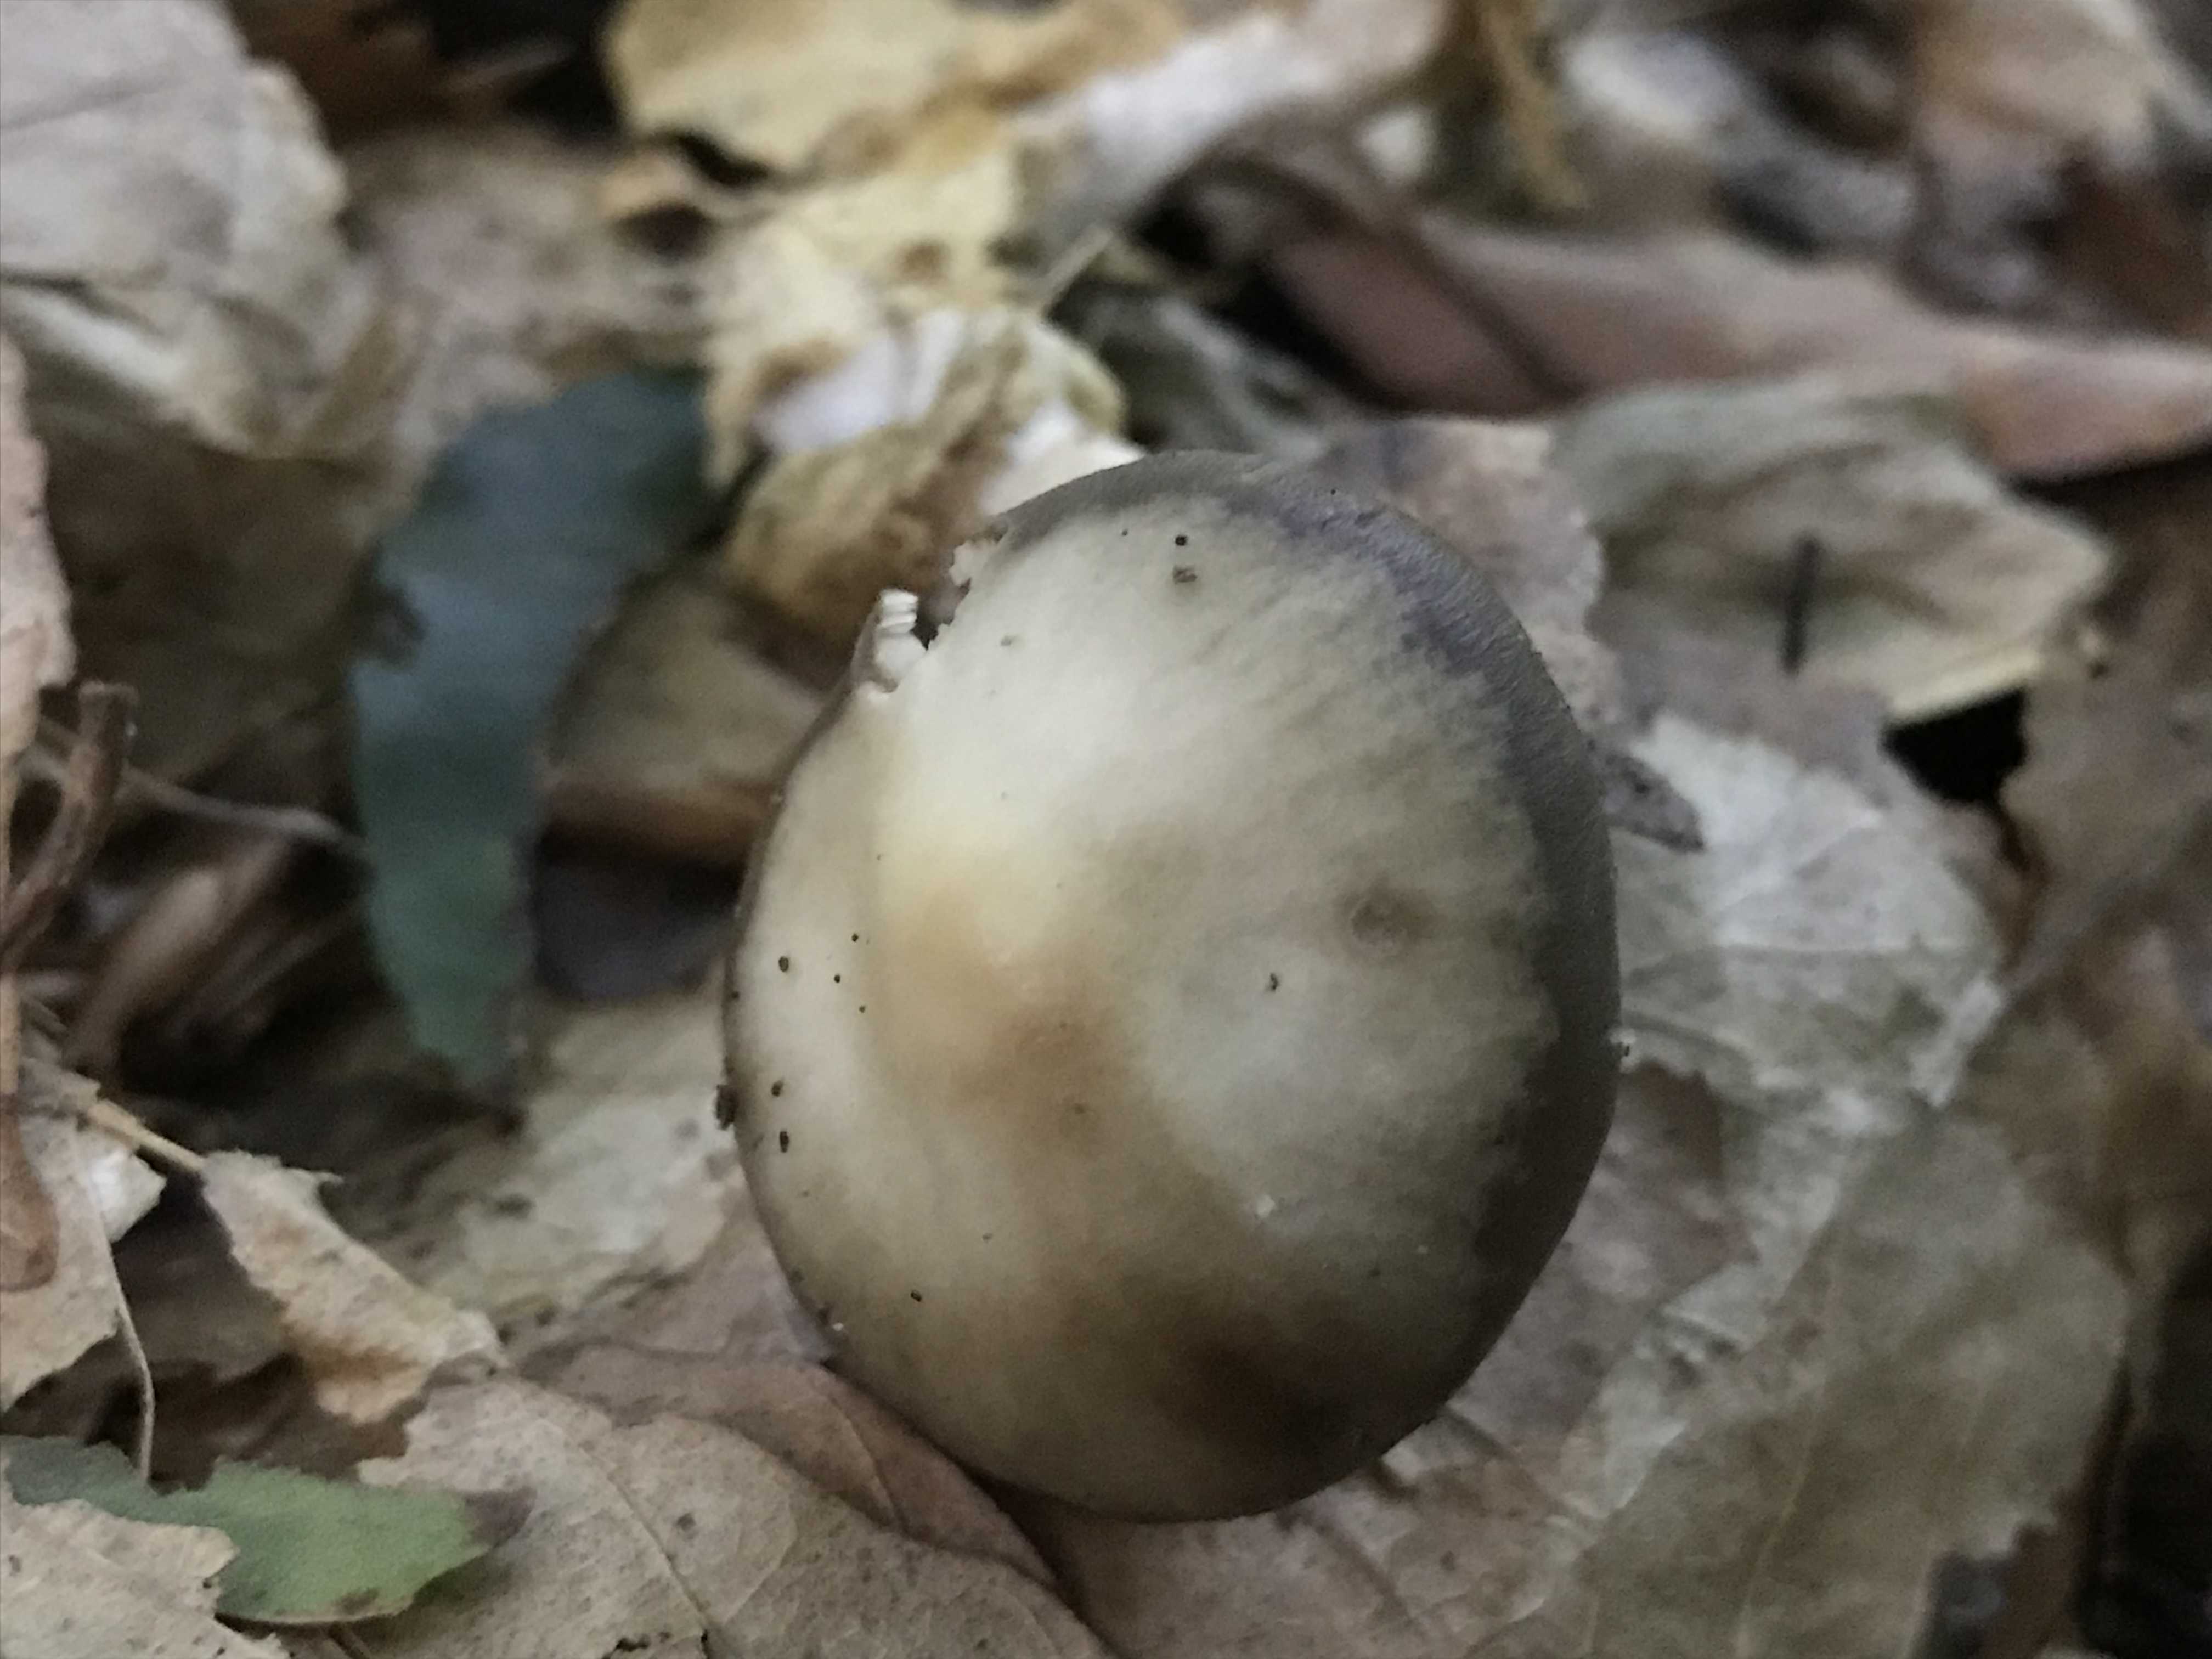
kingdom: Fungi
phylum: Basidiomycota
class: Agaricomycetes
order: Agaricales
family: Omphalotaceae
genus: Rhodocollybia
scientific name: Rhodocollybia asema
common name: horngrå fladhat
